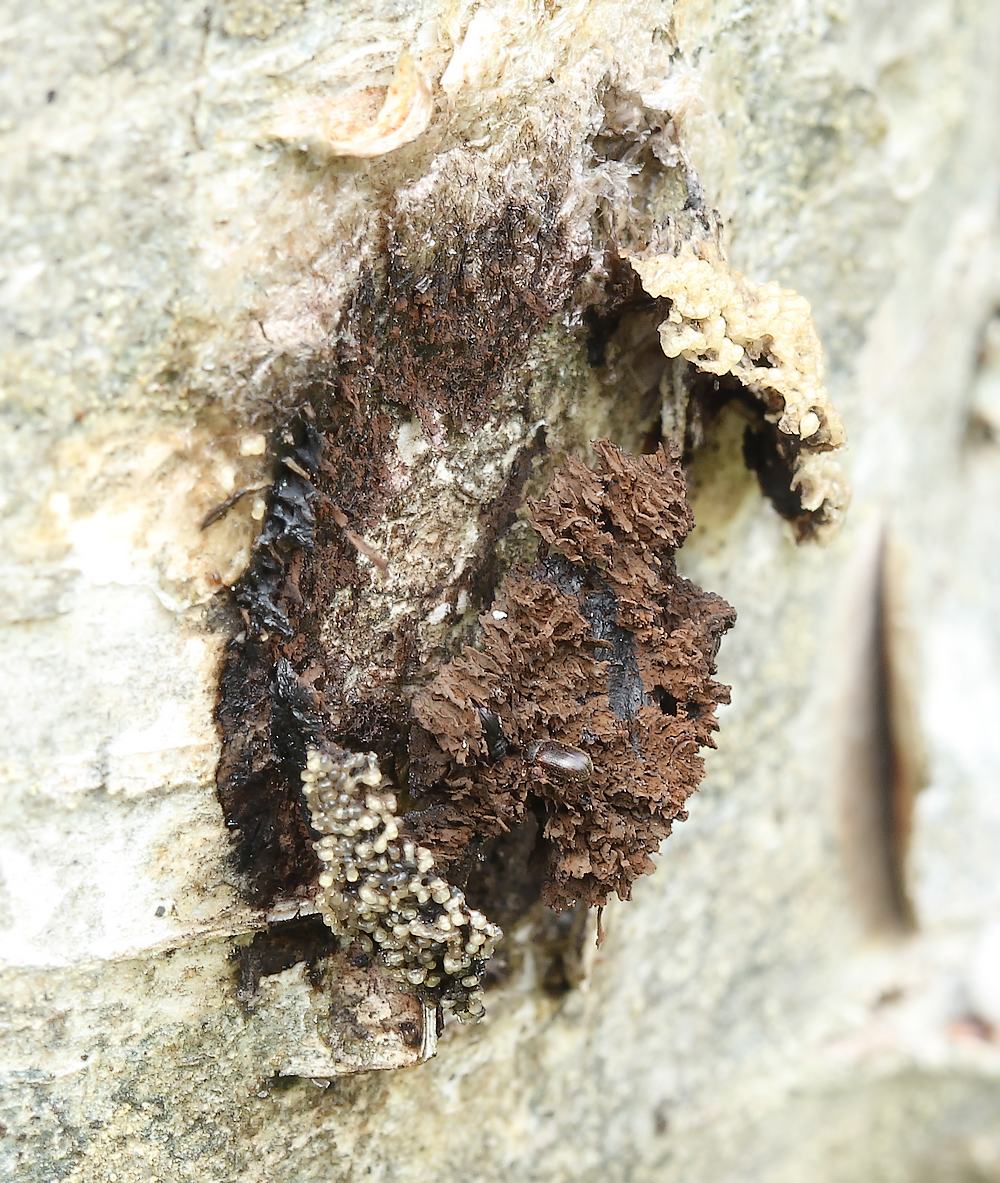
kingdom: Protozoa
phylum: Mycetozoa
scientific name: Mycetozoa
